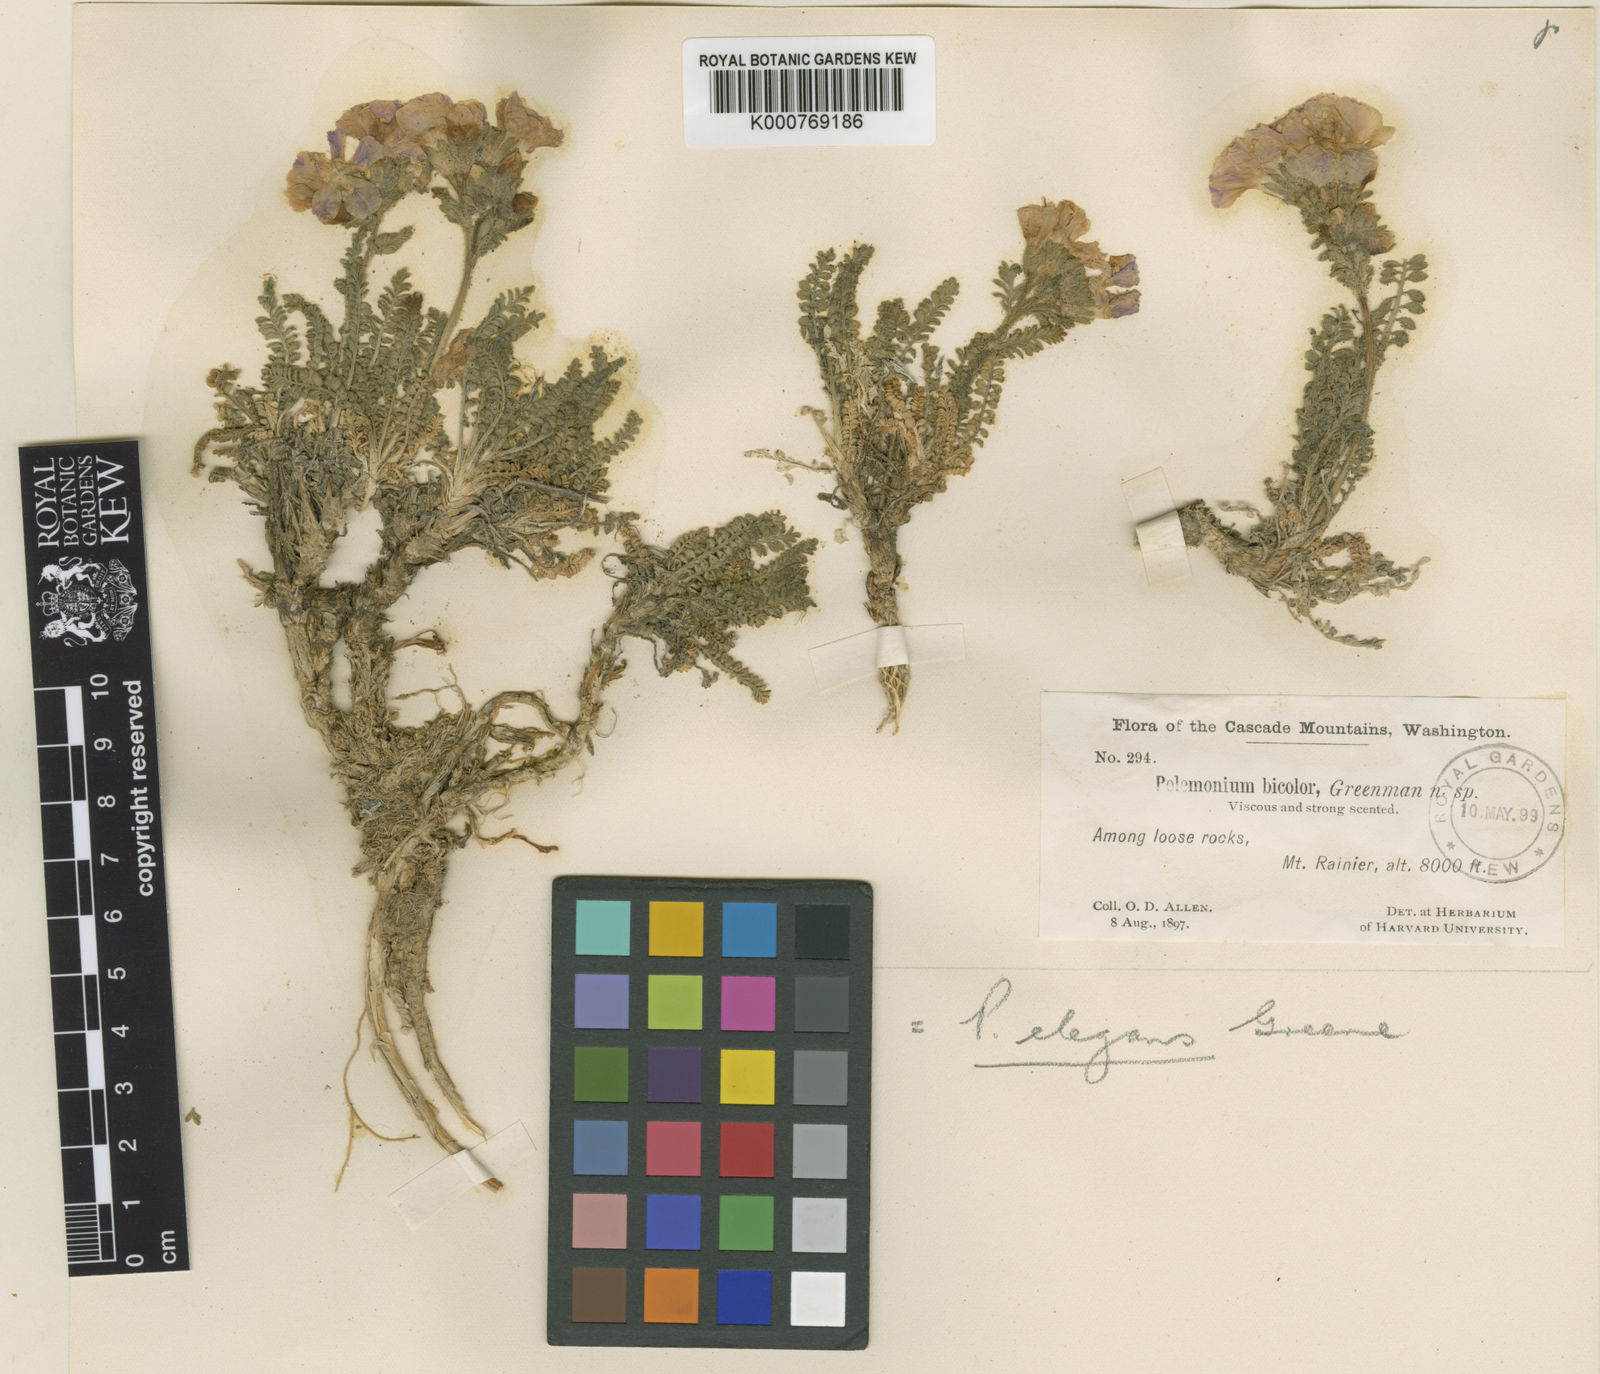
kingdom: Plantae
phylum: Tracheophyta
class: Magnoliopsida
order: Ericales
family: Polemoniaceae
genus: Polemonium
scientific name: Polemonium elegans
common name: Elegant jacob's-ladder
